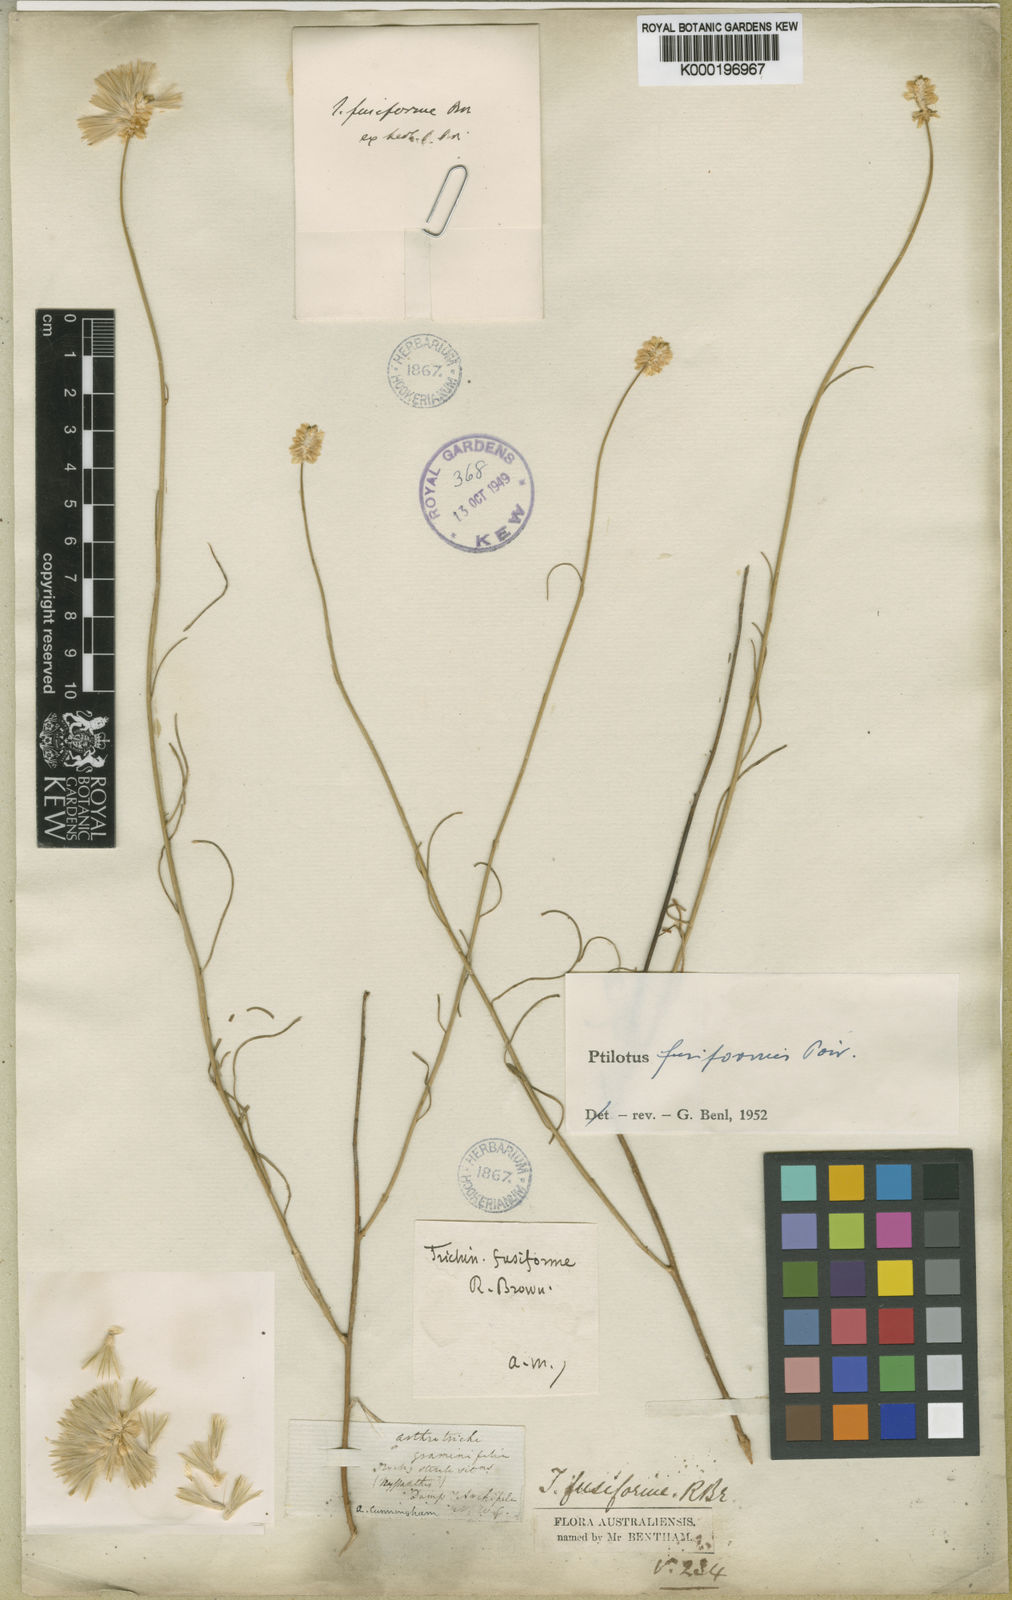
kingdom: Plantae
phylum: Tracheophyta
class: Magnoliopsida
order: Caryophyllales
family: Amaranthaceae
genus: Ptilotus
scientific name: Ptilotus fusiformis
